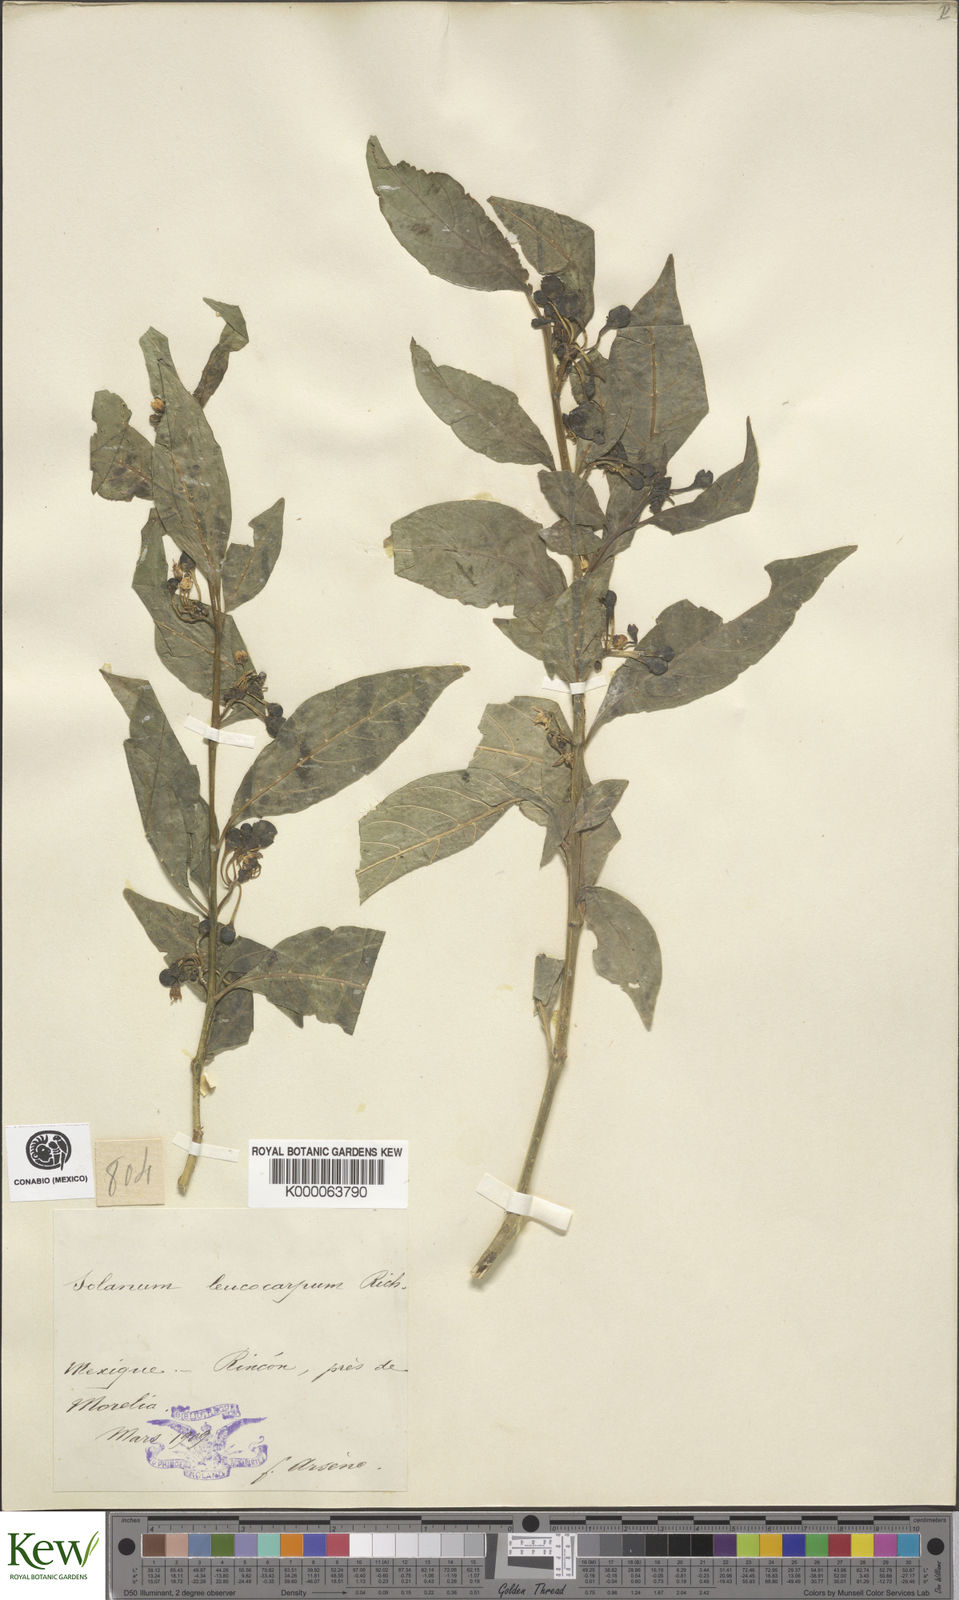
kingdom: Plantae
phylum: Tracheophyta
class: Magnoliopsida
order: Solanales
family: Solanaceae
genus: Solanum
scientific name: Solanum leucocarpon
